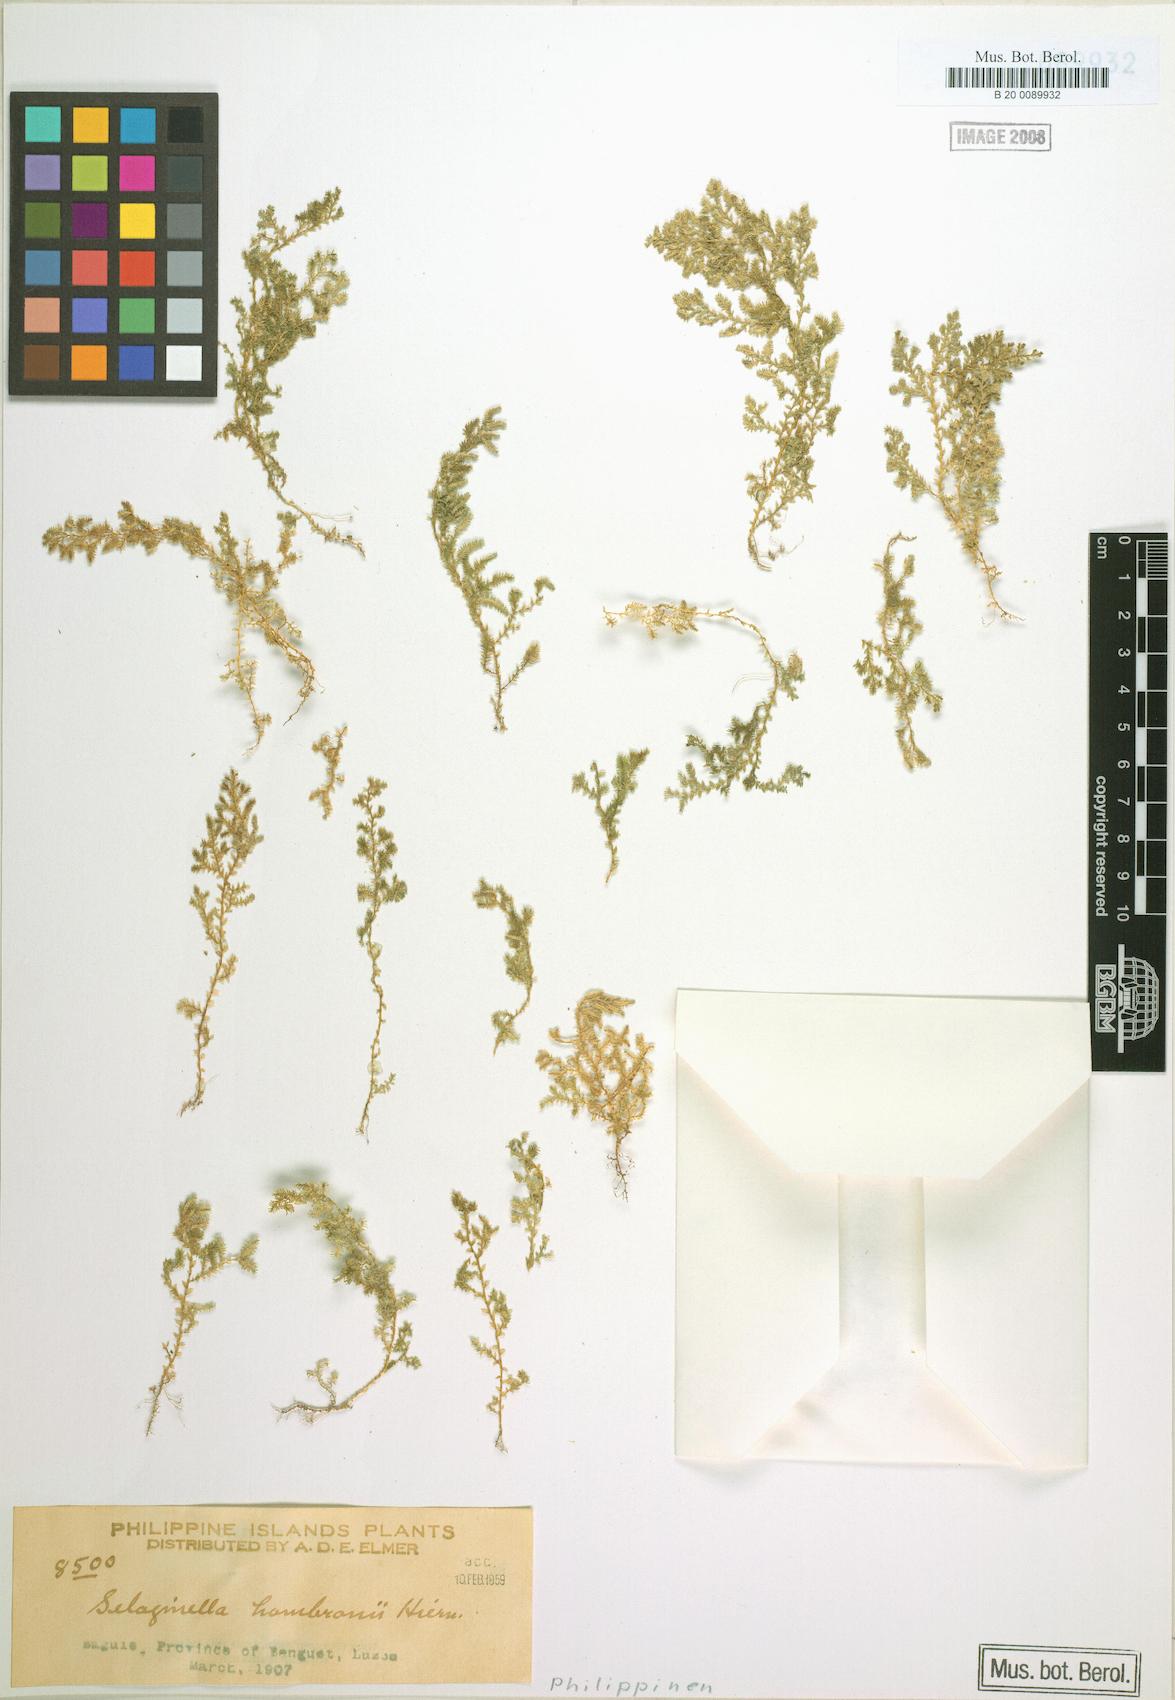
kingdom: Plantae
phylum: Tracheophyta
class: Lycopodiopsida
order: Selaginellales
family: Selaginellaceae
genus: Selaginella
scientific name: Selaginella philippsiana
